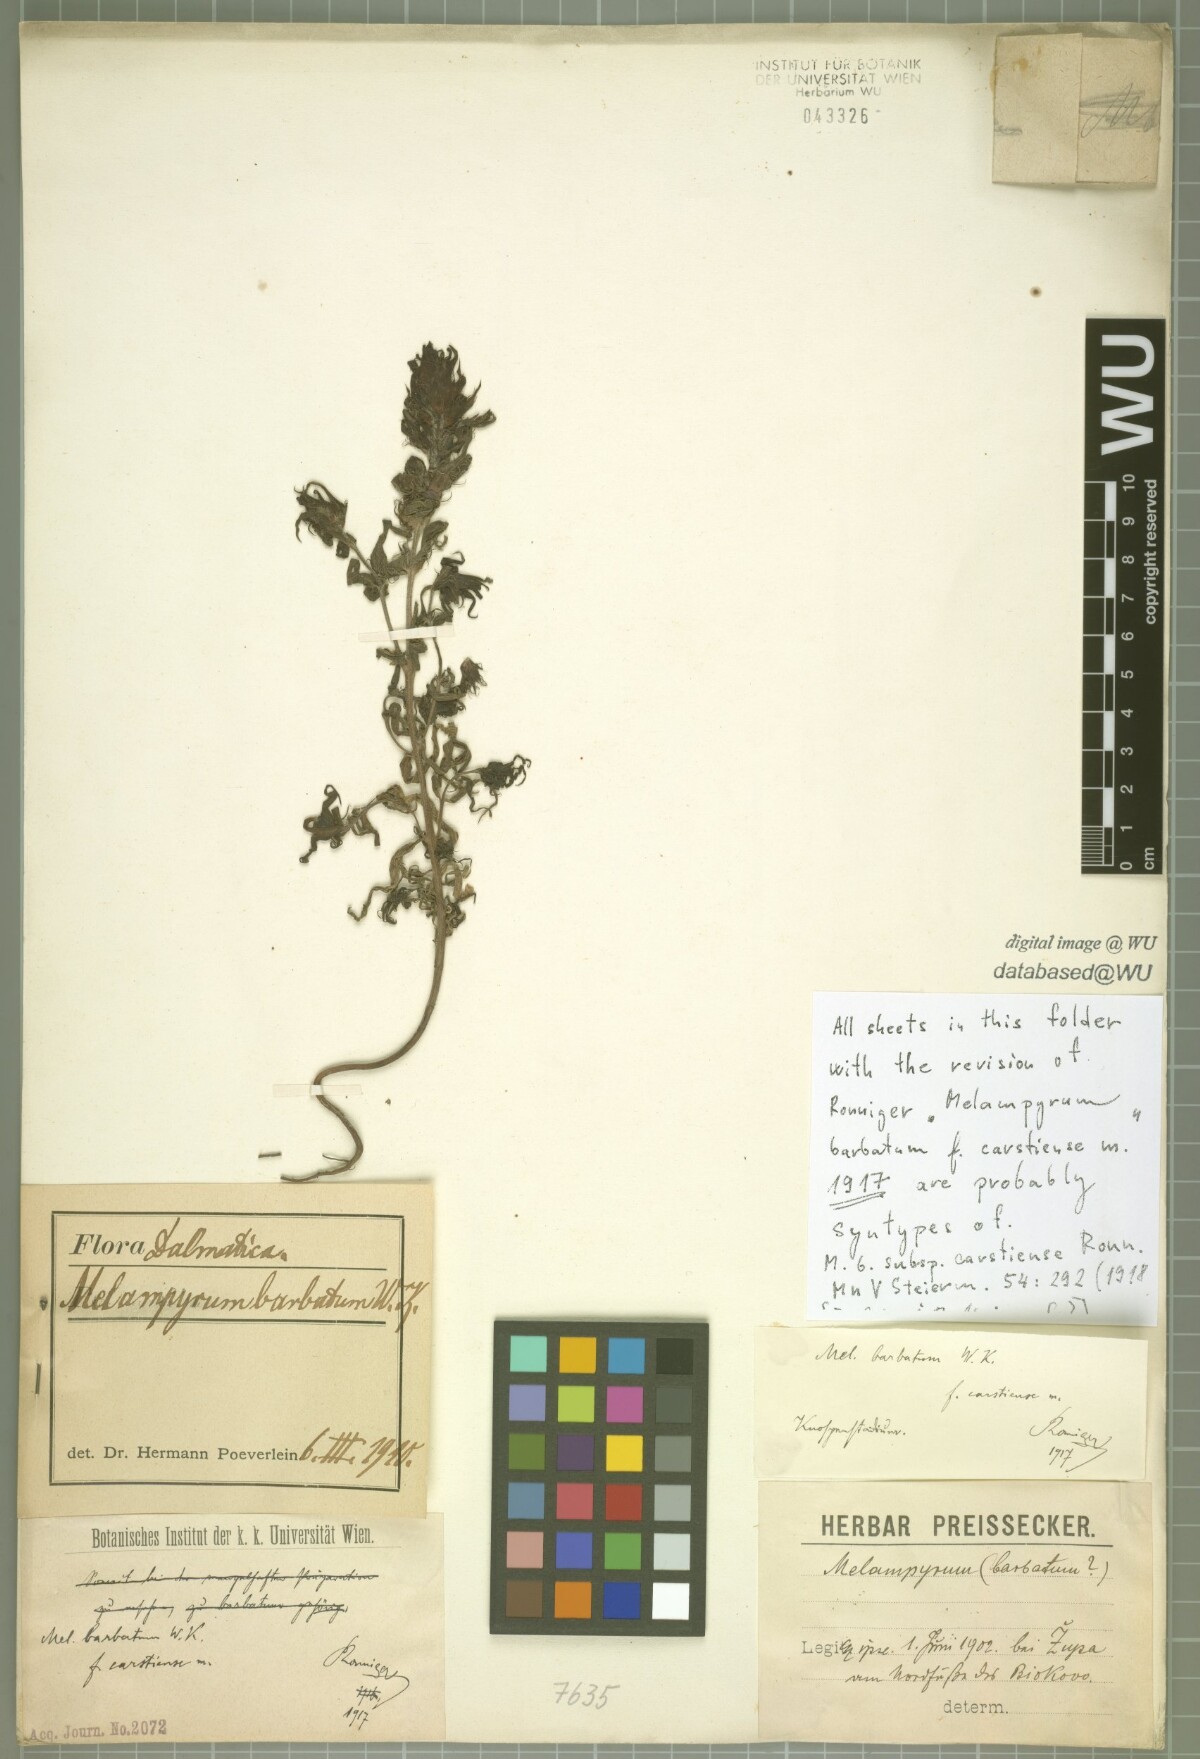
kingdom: Plantae
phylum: Tracheophyta
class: Magnoliopsida
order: Lamiales
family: Orobanchaceae
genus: Melampyrum
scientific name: Melampyrum barbatum
